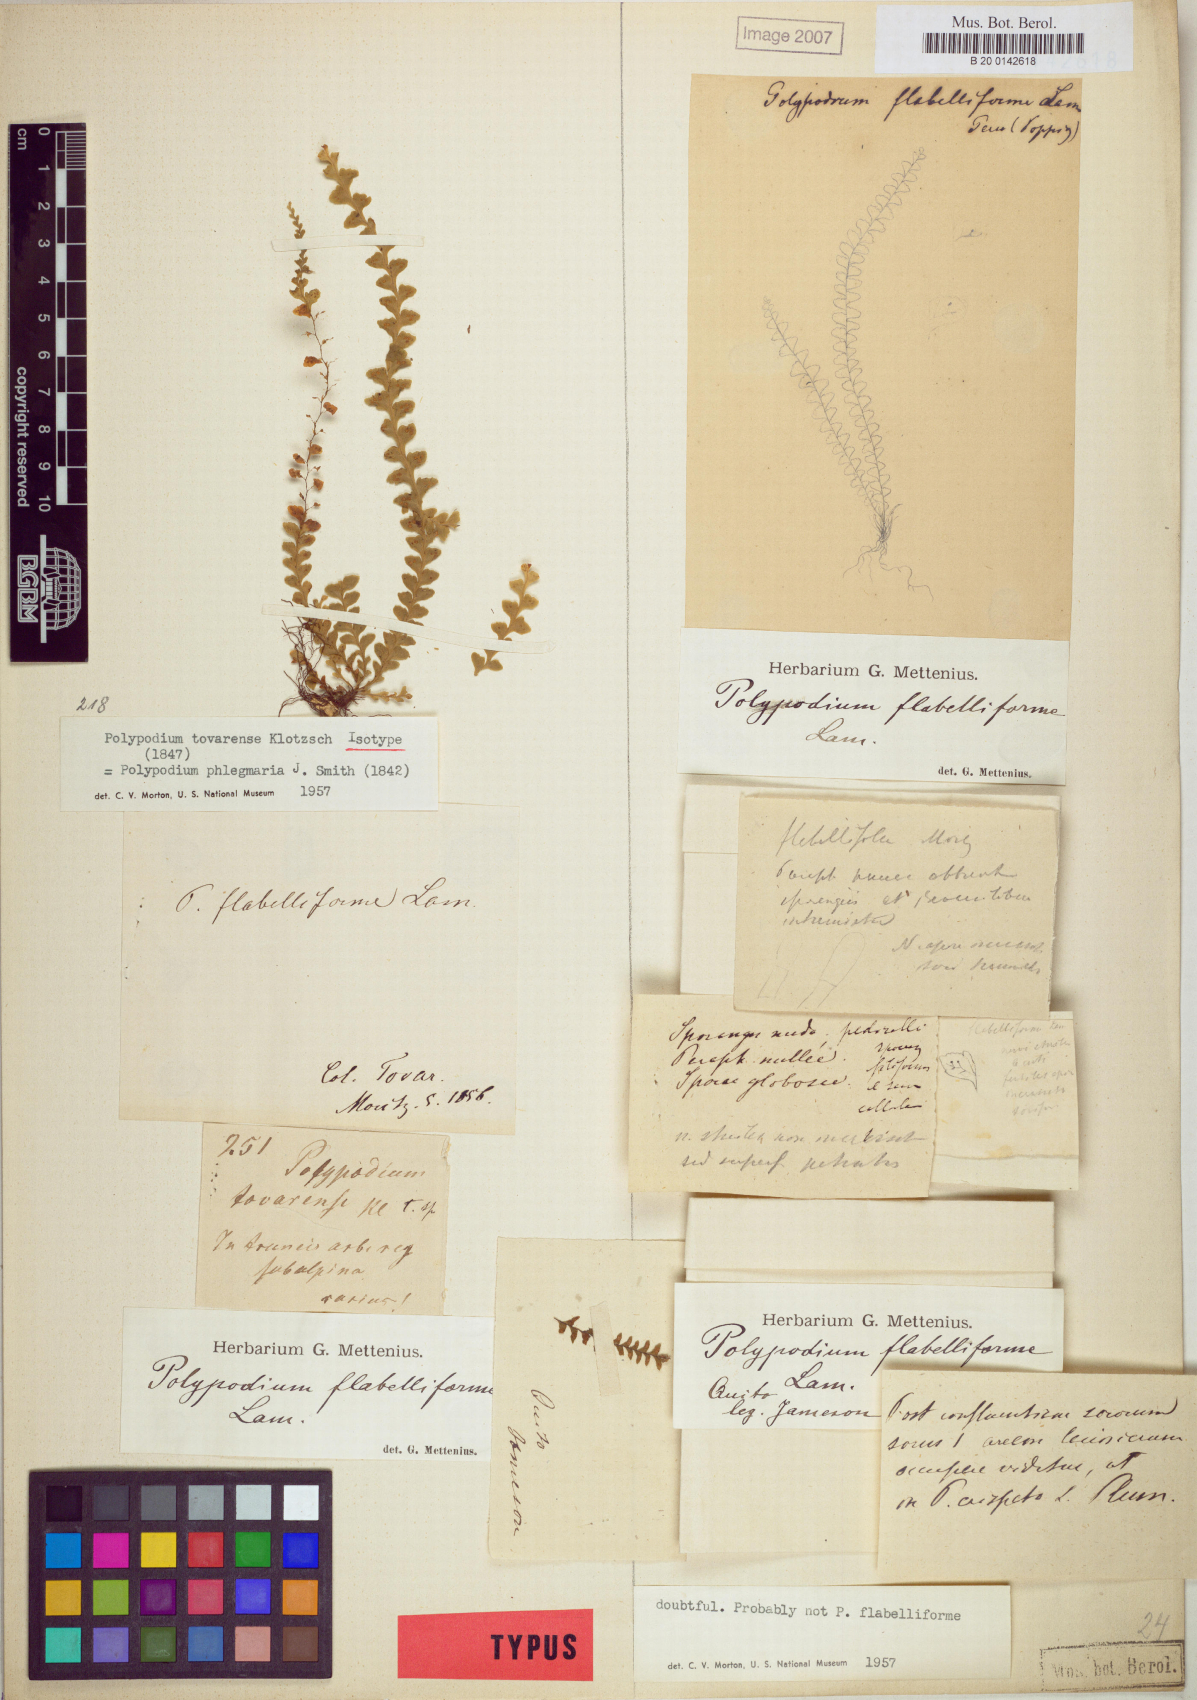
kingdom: Plantae
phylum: Tracheophyta
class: Polypodiopsida
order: Polypodiales
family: Polypodiaceae
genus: Lellingeria
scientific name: Lellingeria phlegmaria
